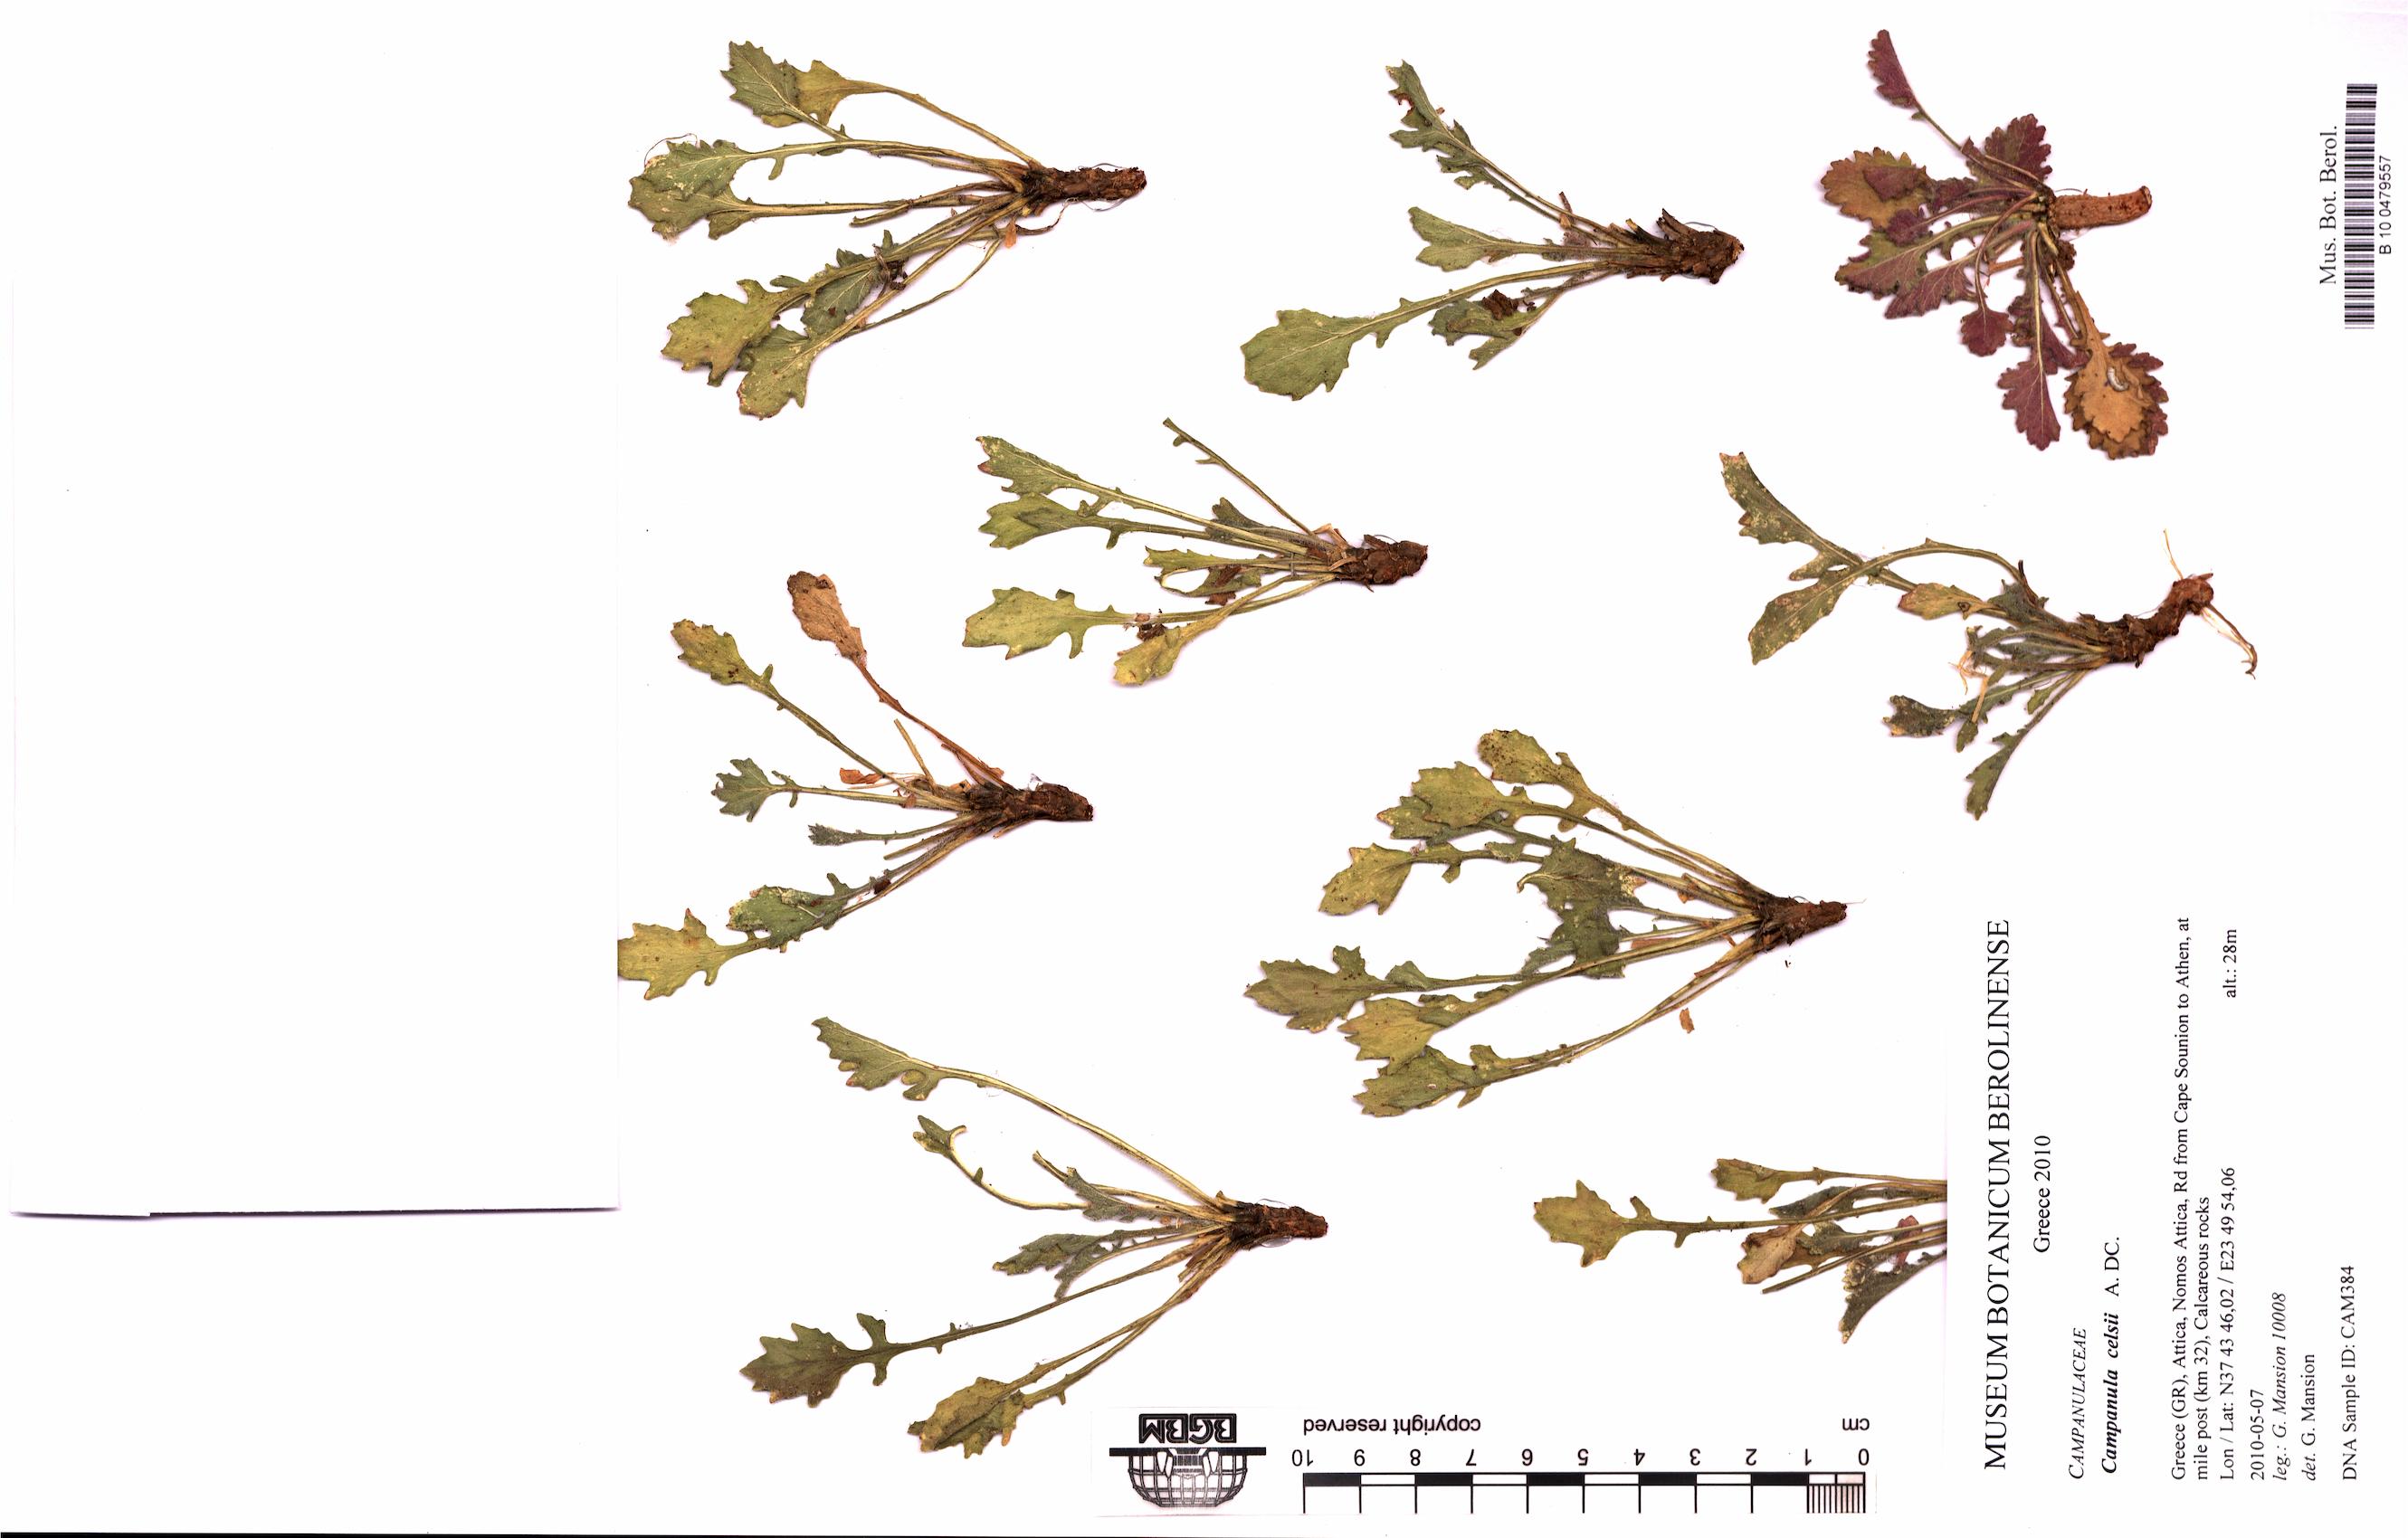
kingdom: Plantae
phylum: Tracheophyta
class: Magnoliopsida
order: Asterales
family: Campanulaceae
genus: Campanula
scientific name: Campanula celsii
